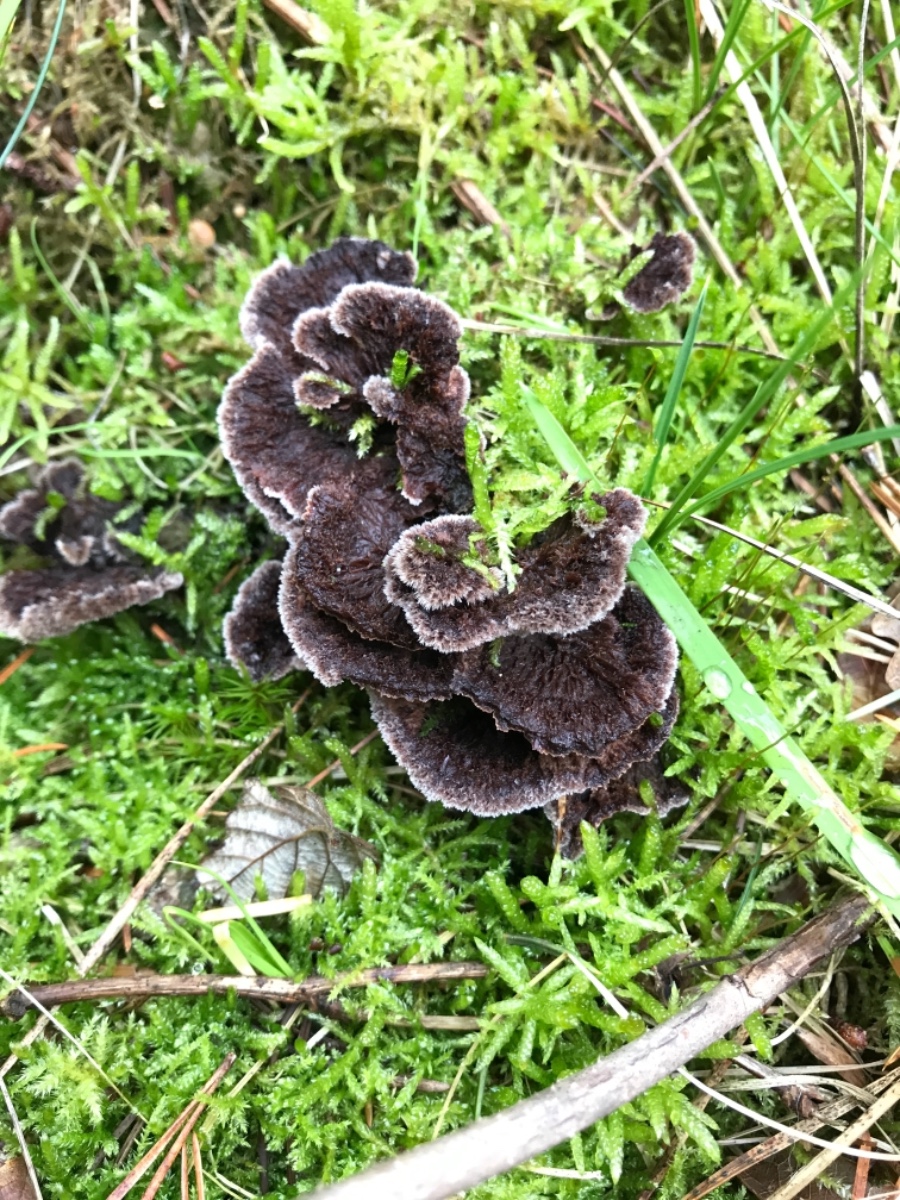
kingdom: Fungi
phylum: Basidiomycota
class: Agaricomycetes
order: Thelephorales
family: Thelephoraceae
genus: Thelephora
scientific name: Thelephora terrestris
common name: fliget frynsesvamp
